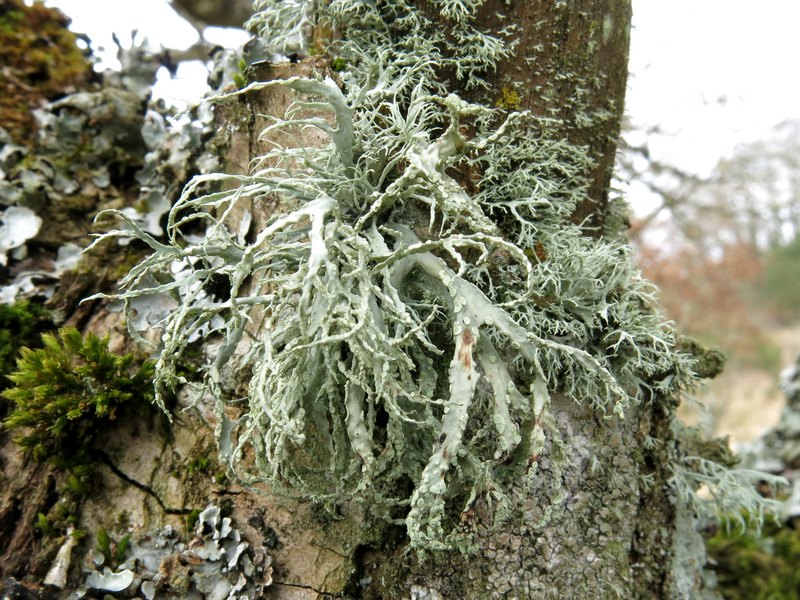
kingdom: Fungi
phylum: Ascomycota
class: Lecanoromycetes
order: Lecanorales
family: Ramalinaceae
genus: Ramalina
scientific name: Ramalina farinacea
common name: melet grenlav
